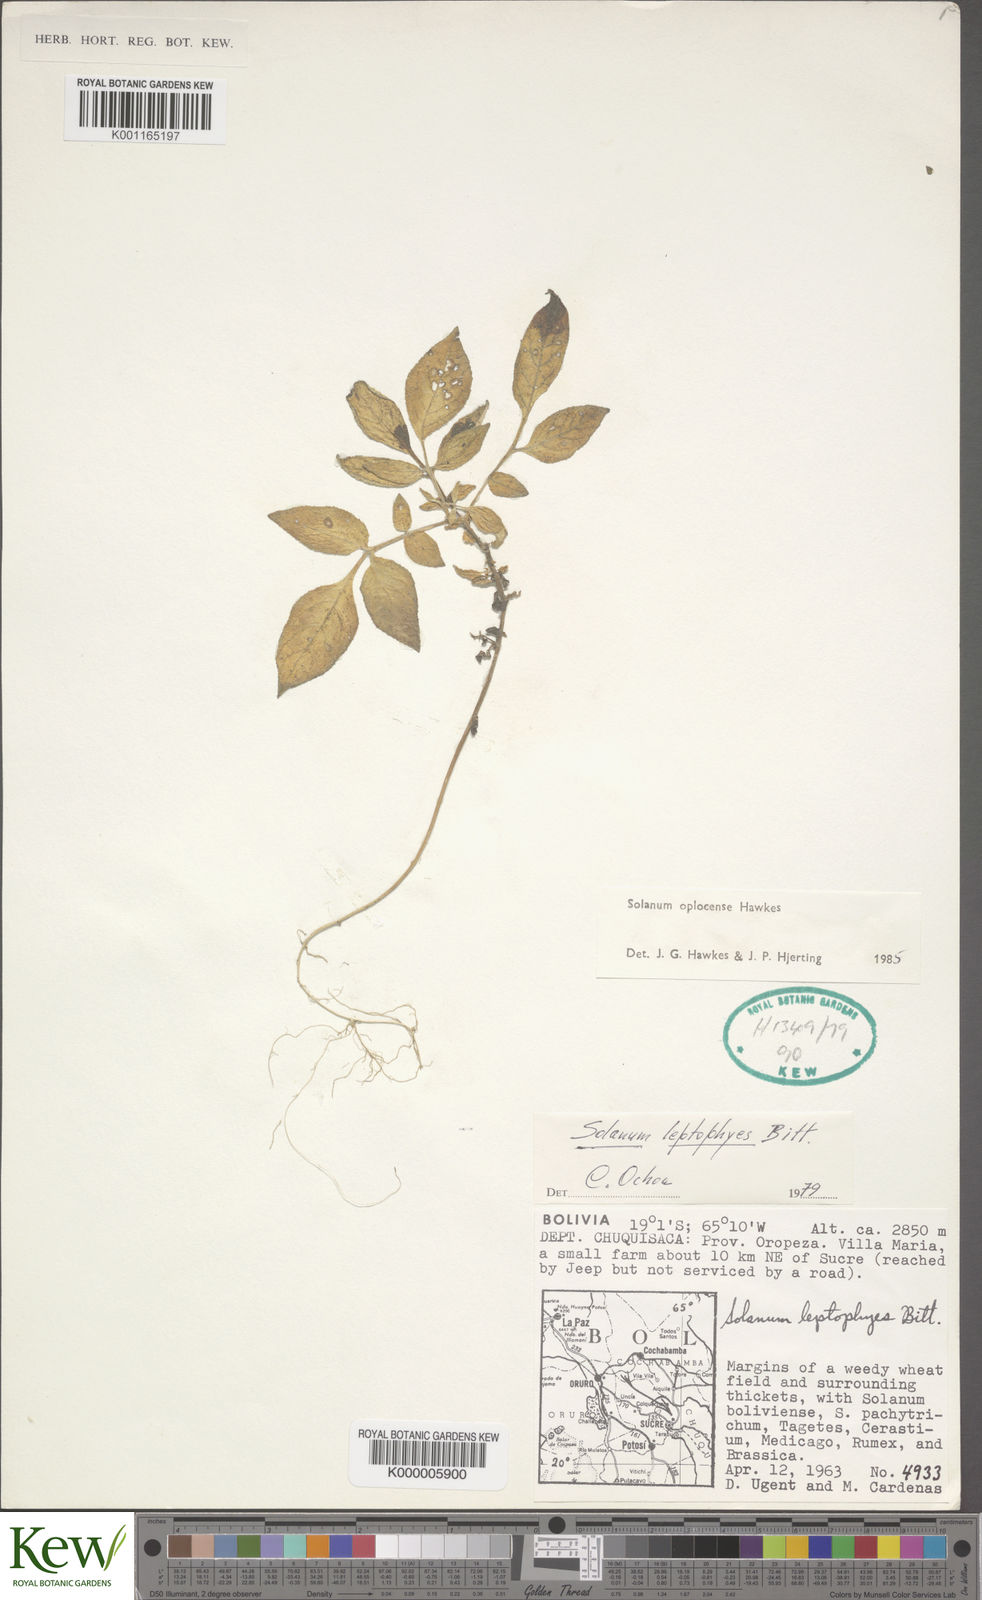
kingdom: Plantae
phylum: Tracheophyta
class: Magnoliopsida
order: Solanales
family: Solanaceae
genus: Solanum
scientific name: Solanum brevicaule
